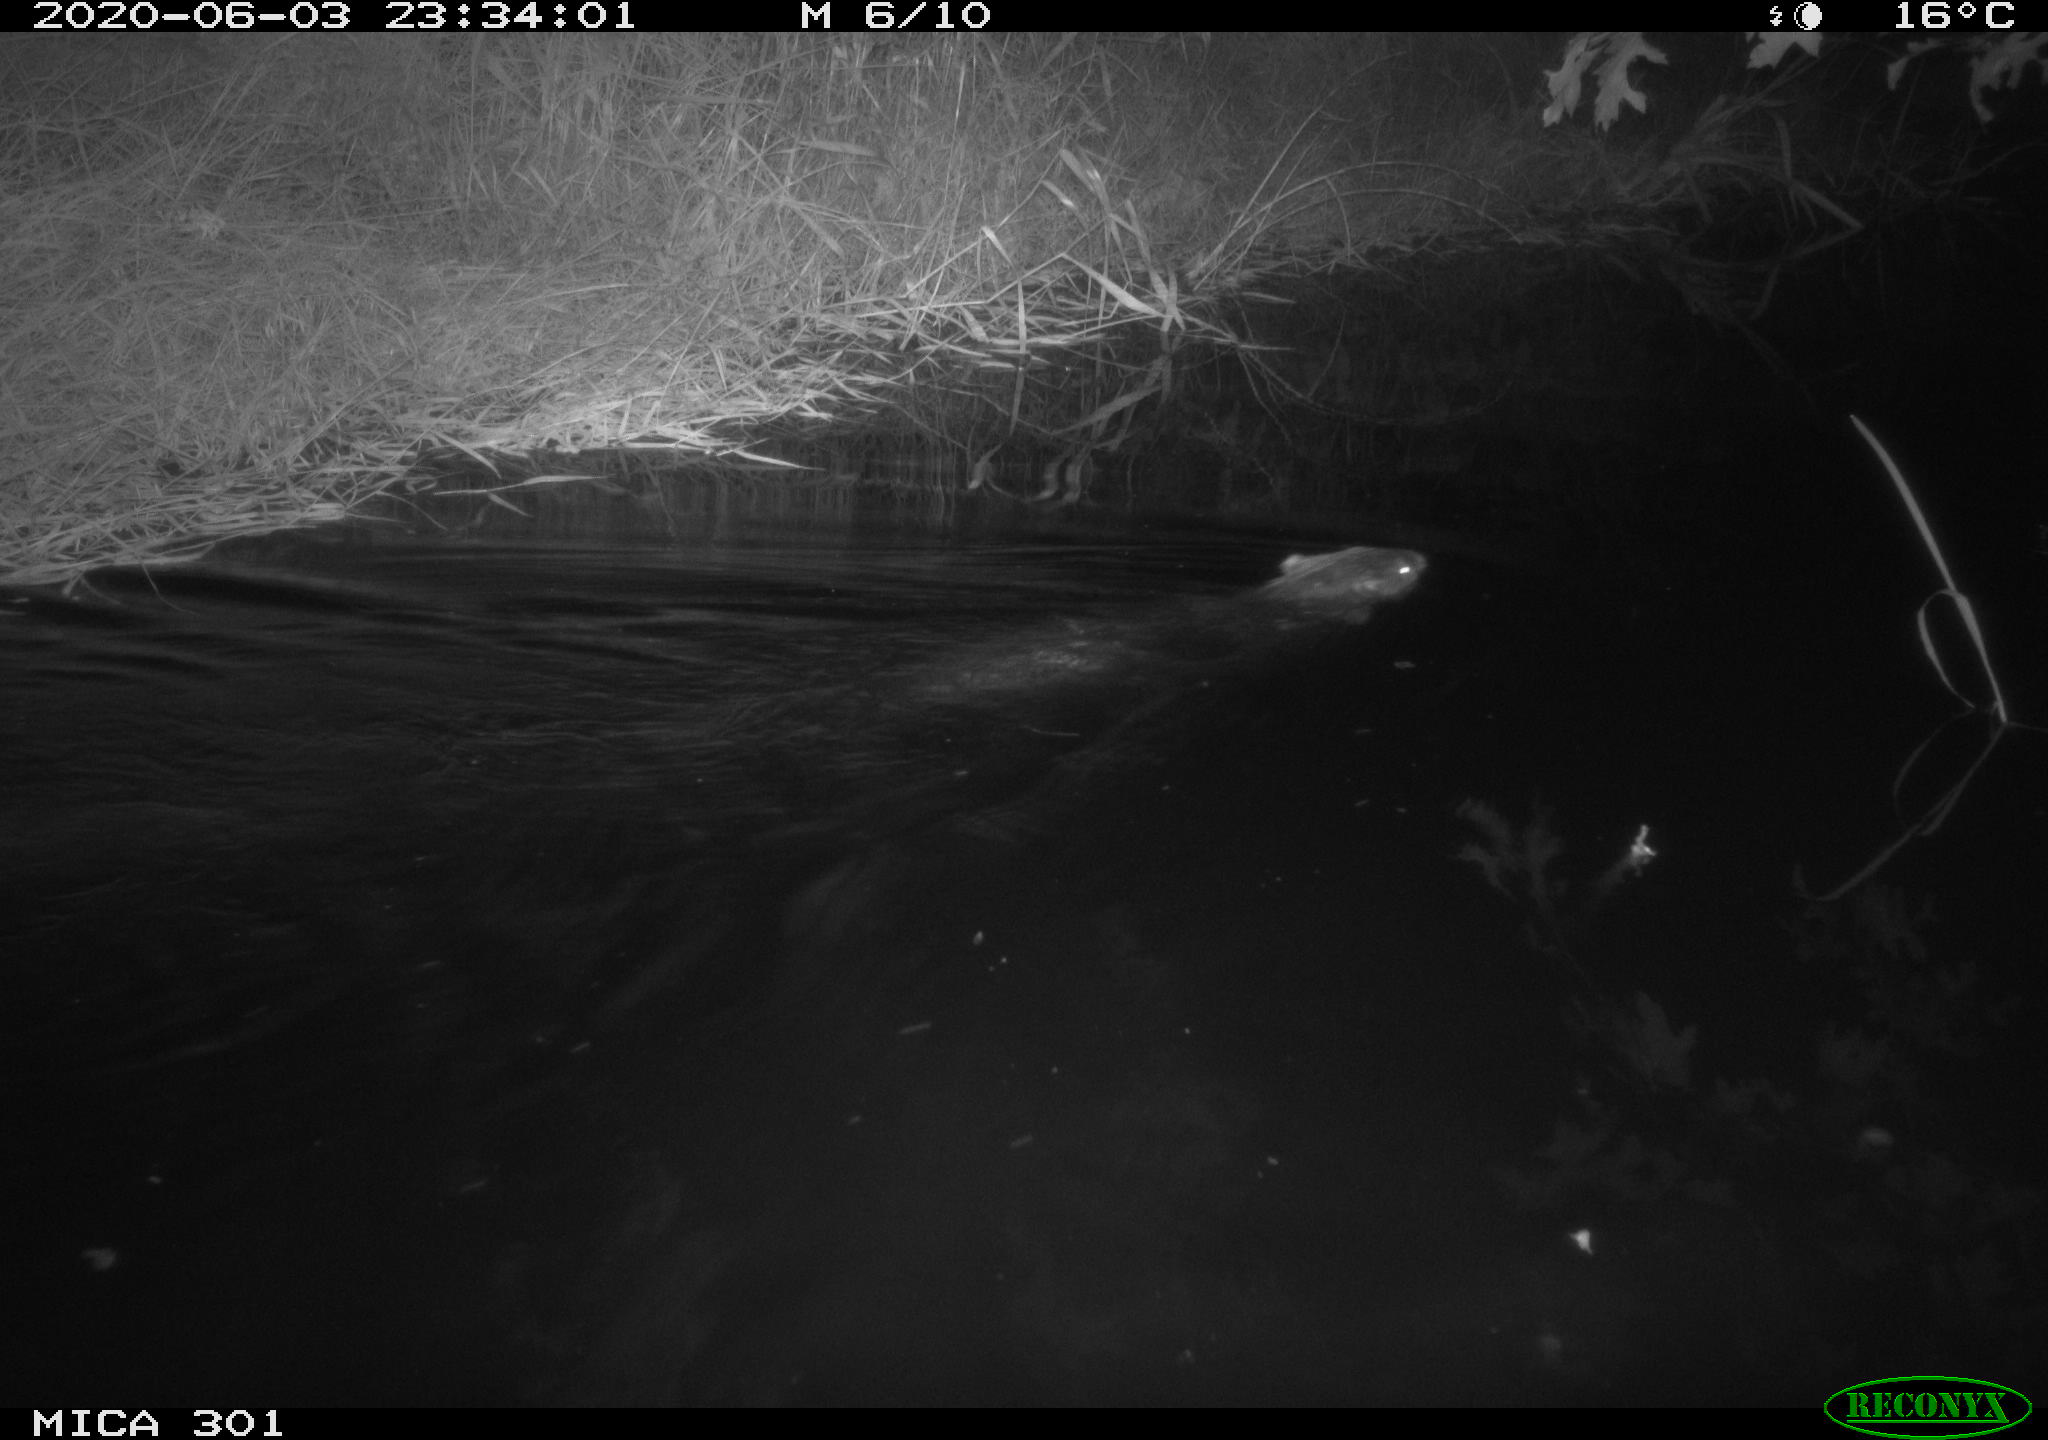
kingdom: Animalia
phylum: Chordata
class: Mammalia
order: Rodentia
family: Castoridae
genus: Castor
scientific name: Castor fiber
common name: Eurasian beaver
